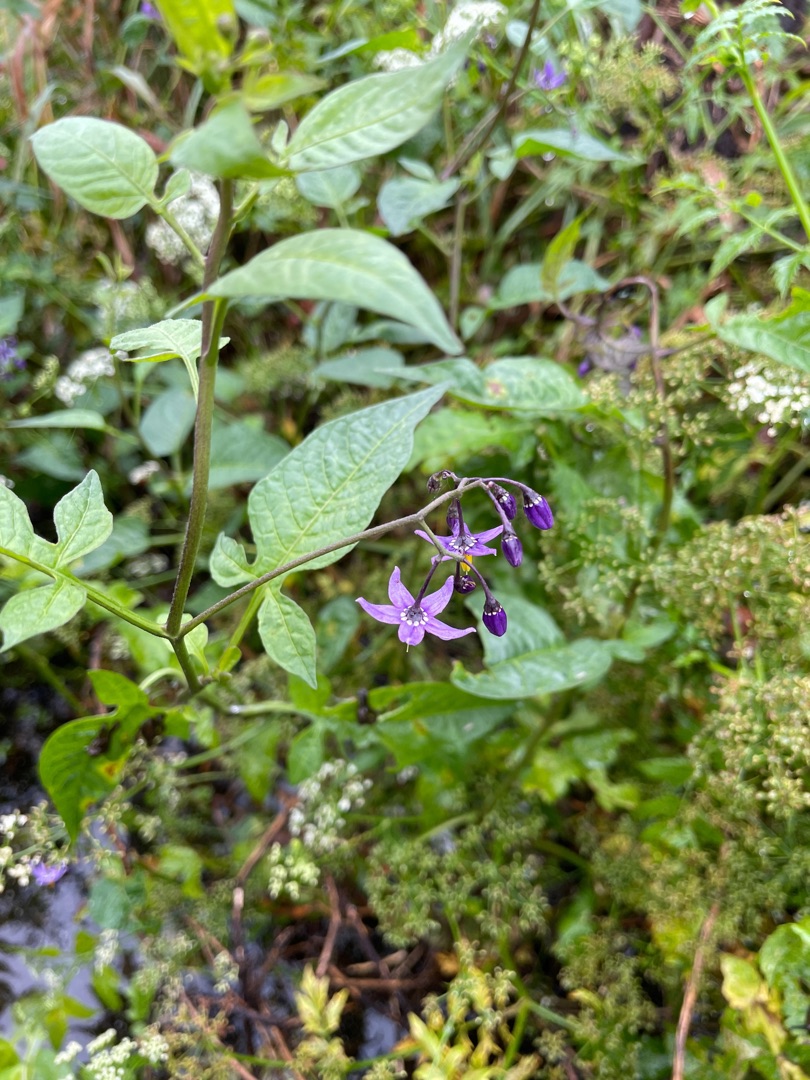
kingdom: Plantae
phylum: Tracheophyta
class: Magnoliopsida
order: Solanales
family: Solanaceae
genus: Solanum
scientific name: Solanum dulcamara
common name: Bittersød natskygge
